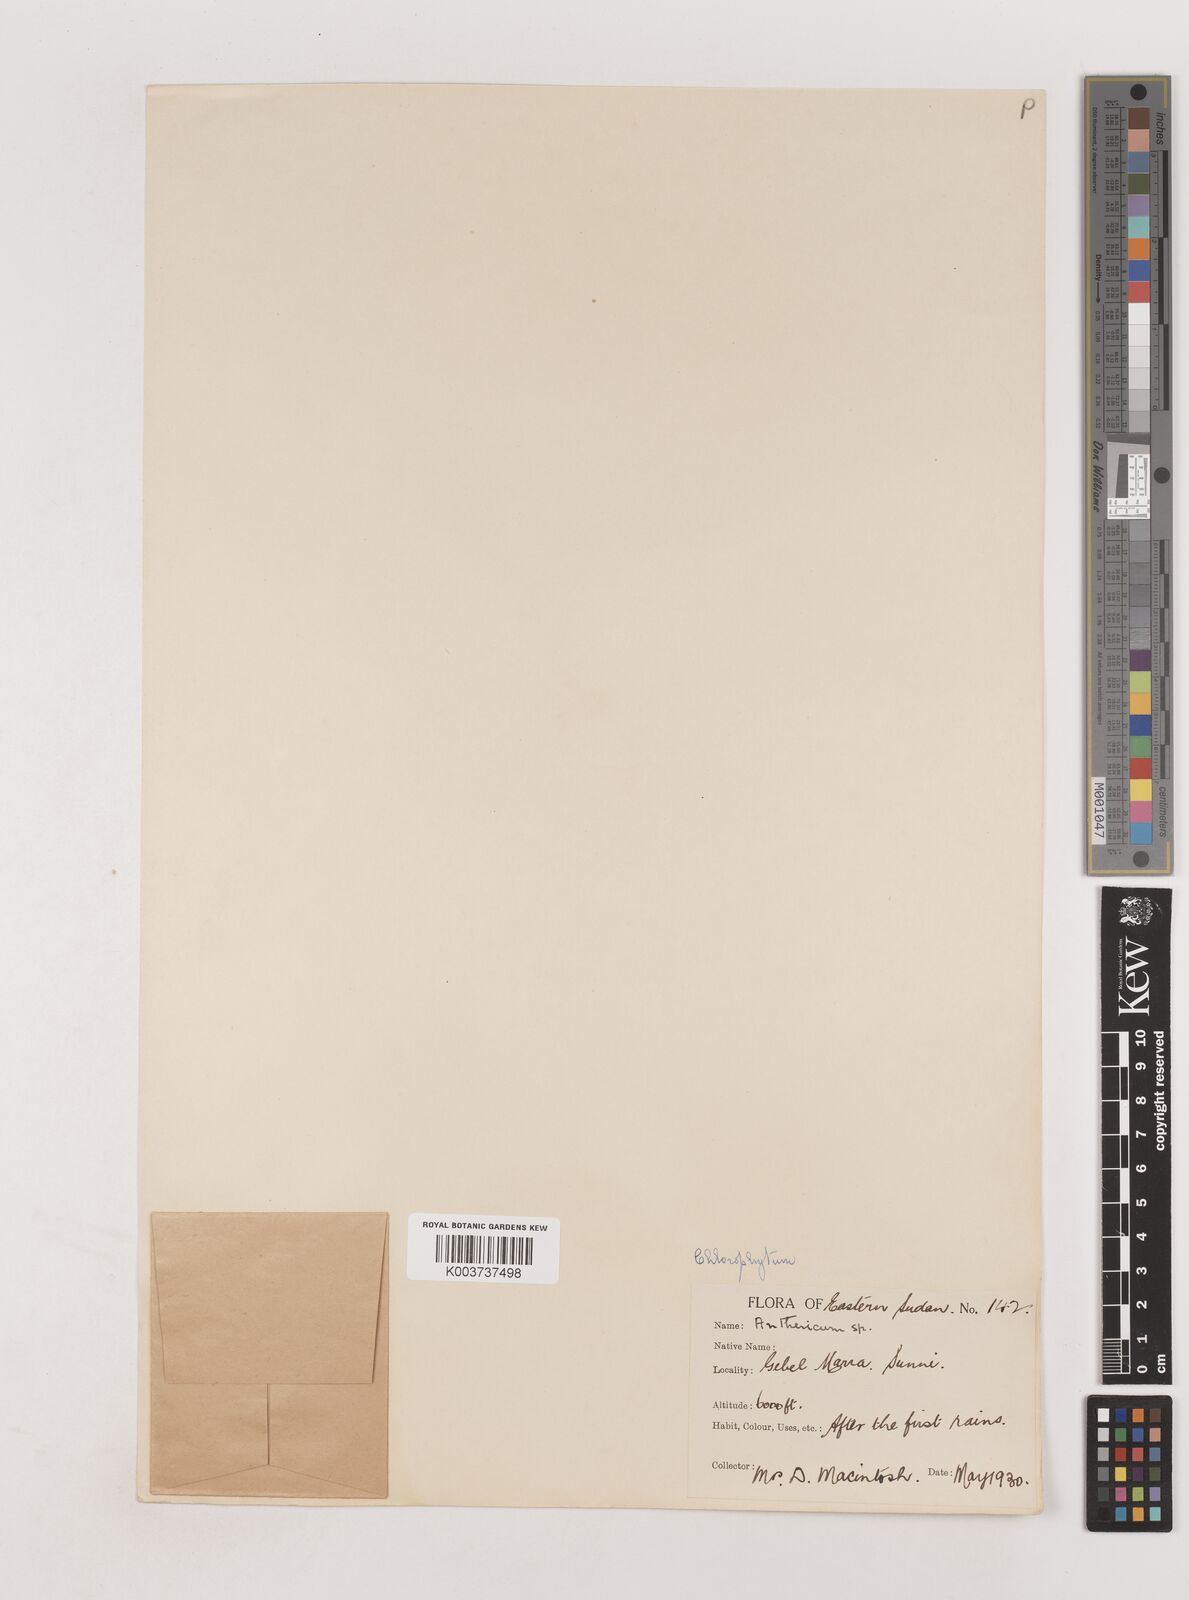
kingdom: Plantae
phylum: Tracheophyta
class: Liliopsida
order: Asparagales
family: Asparagaceae
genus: Chlorophytum
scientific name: Chlorophytum macrophyllum
